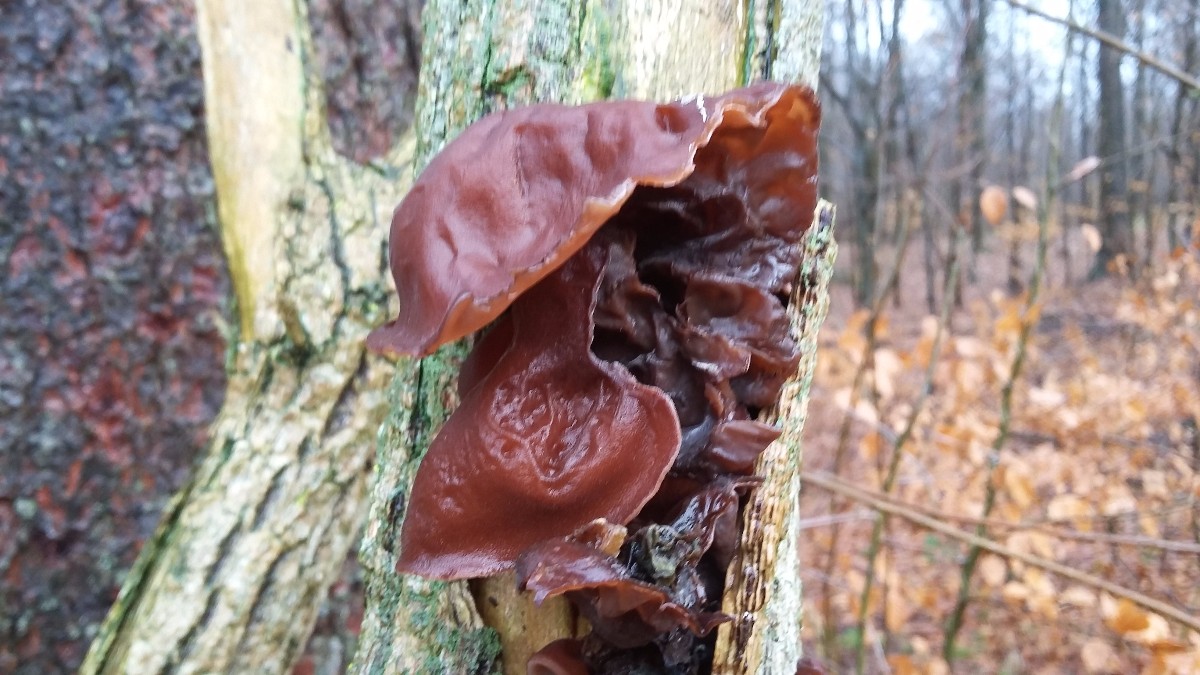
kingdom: Fungi
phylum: Basidiomycota
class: Agaricomycetes
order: Auriculariales
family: Auriculariaceae
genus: Auricularia
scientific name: Auricularia auricula-judae
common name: almindelig judasøre
